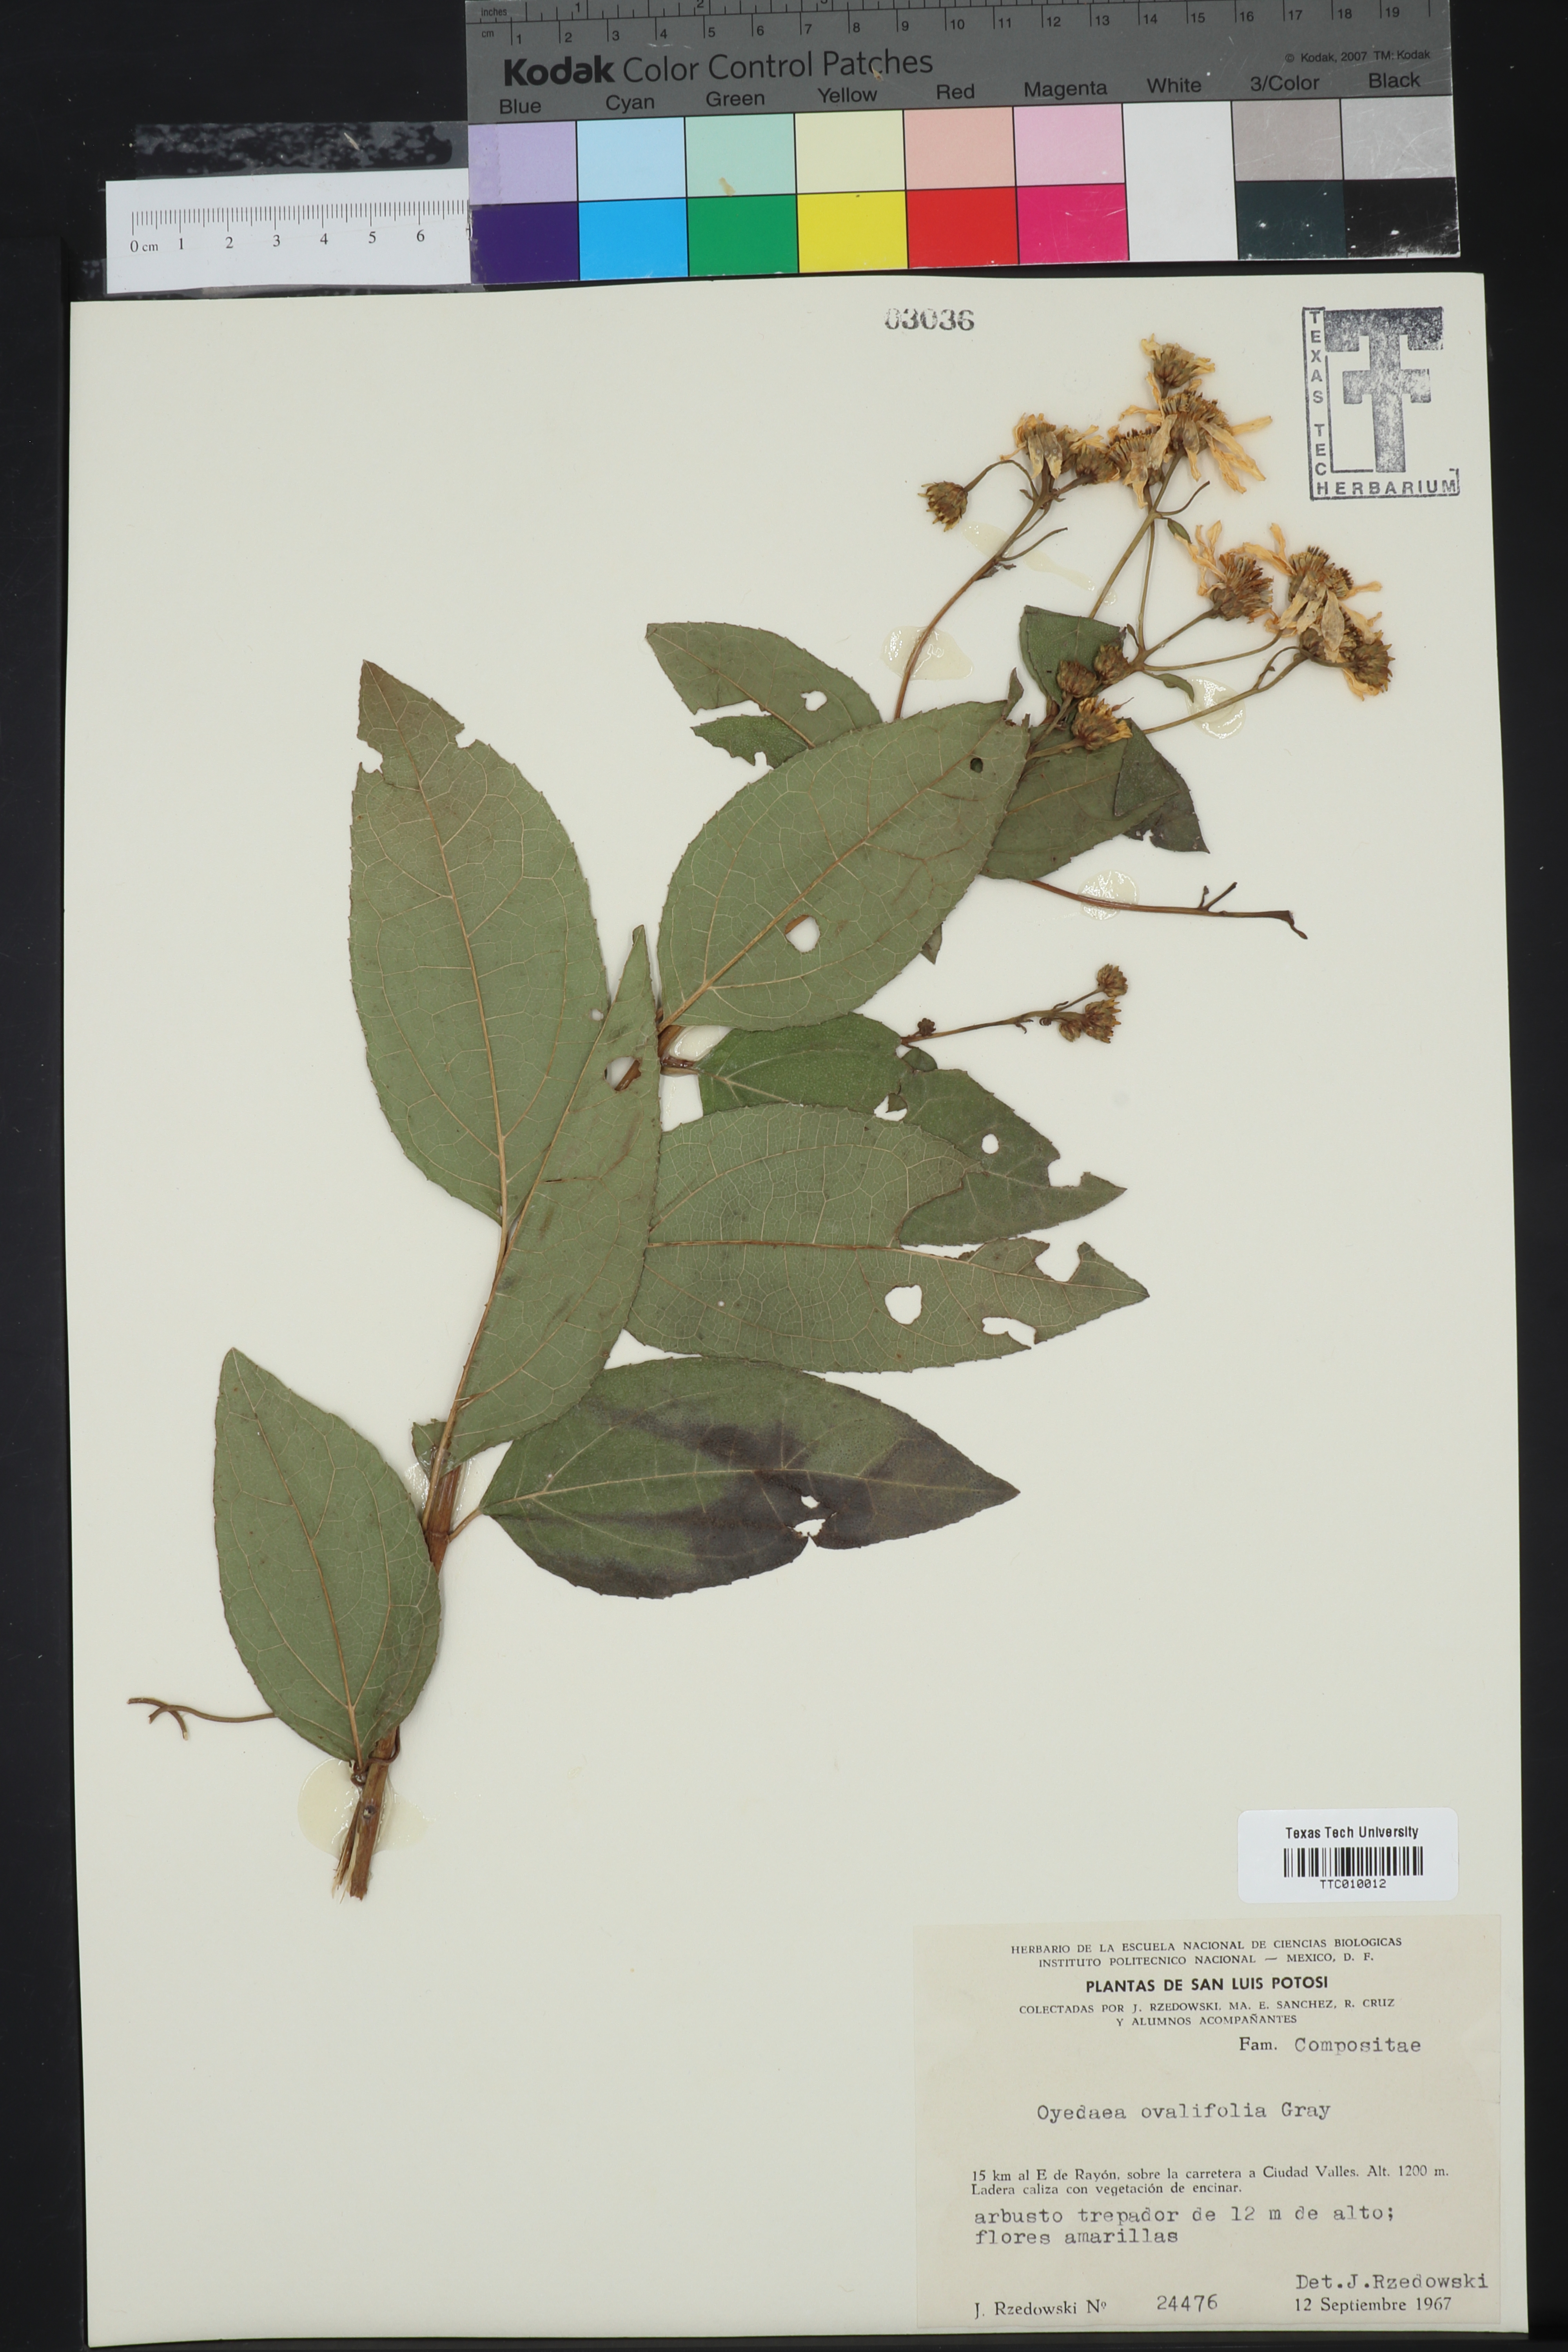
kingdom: Plantae
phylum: Tracheophyta
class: Magnoliopsida
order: Asterales
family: Asteraceae
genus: Perymeniopsis
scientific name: Perymeniopsis ovalifolia
